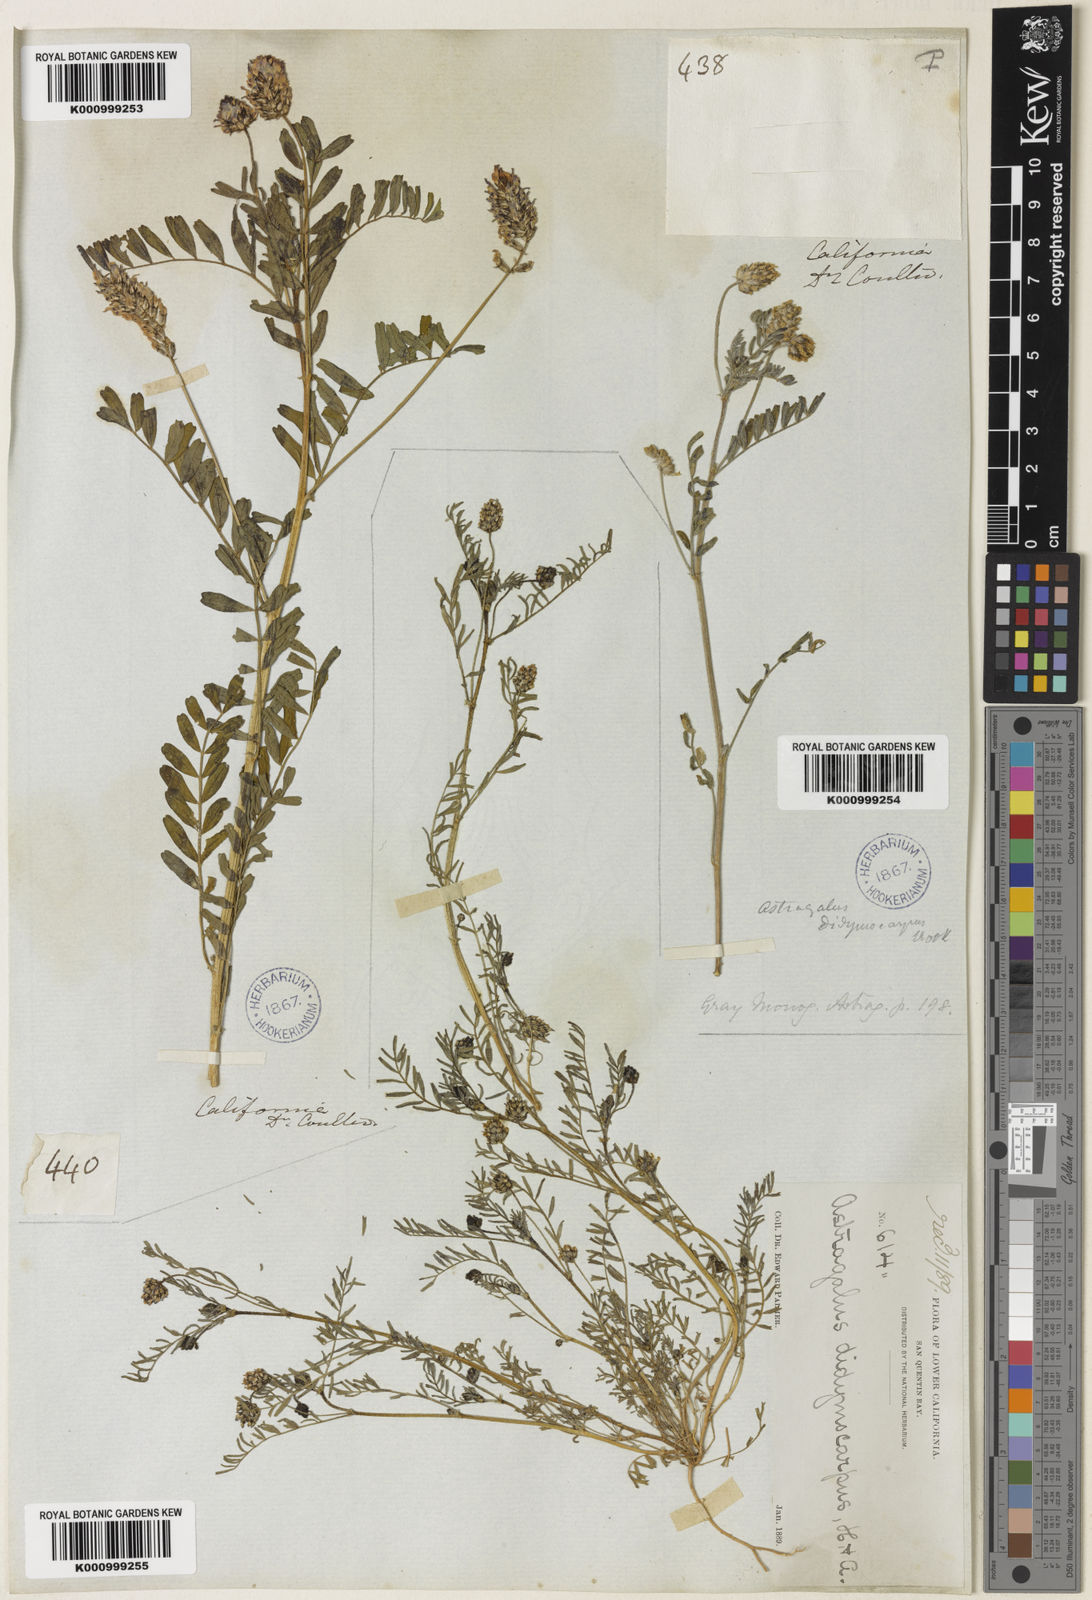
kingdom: Plantae
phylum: Tracheophyta
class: Magnoliopsida
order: Fabales
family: Fabaceae
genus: Astragalus
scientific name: Astragalus didymocarpus
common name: Dwarf white milkvetch
